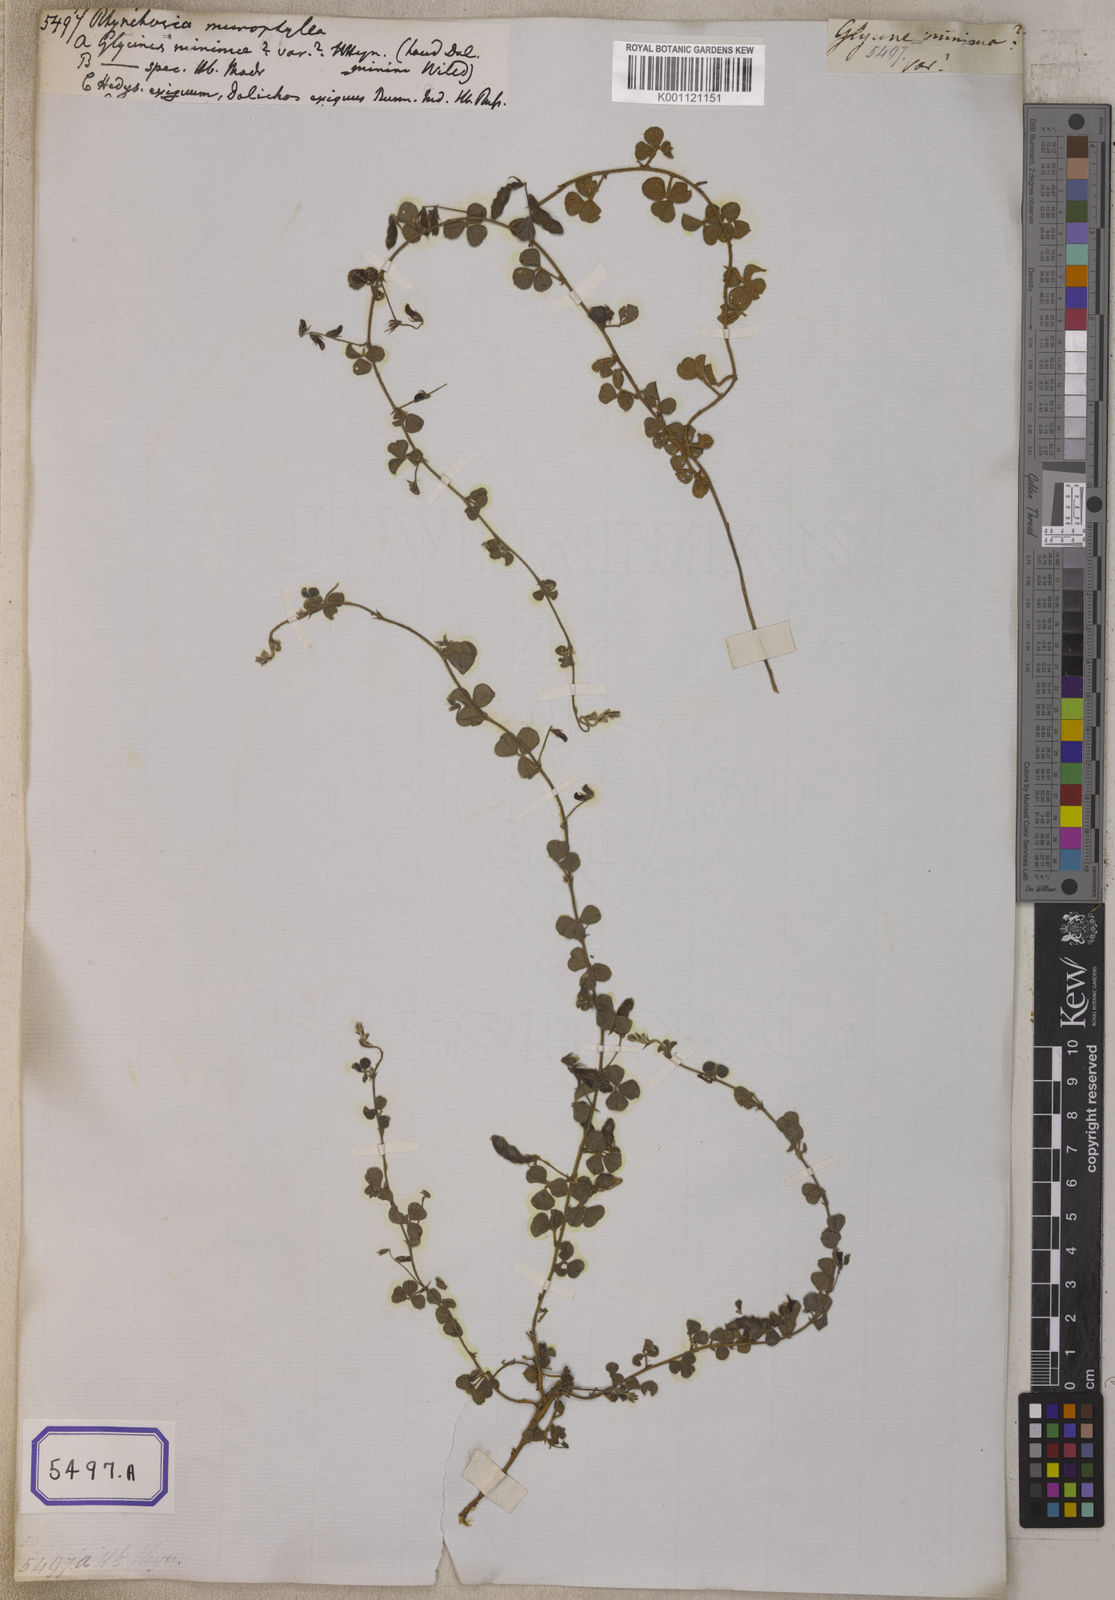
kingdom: Plantae
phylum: Tracheophyta
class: Magnoliopsida
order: Fabales
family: Fabaceae
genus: Rhynchosia
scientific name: Rhynchosia minima
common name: Least snoutbean
